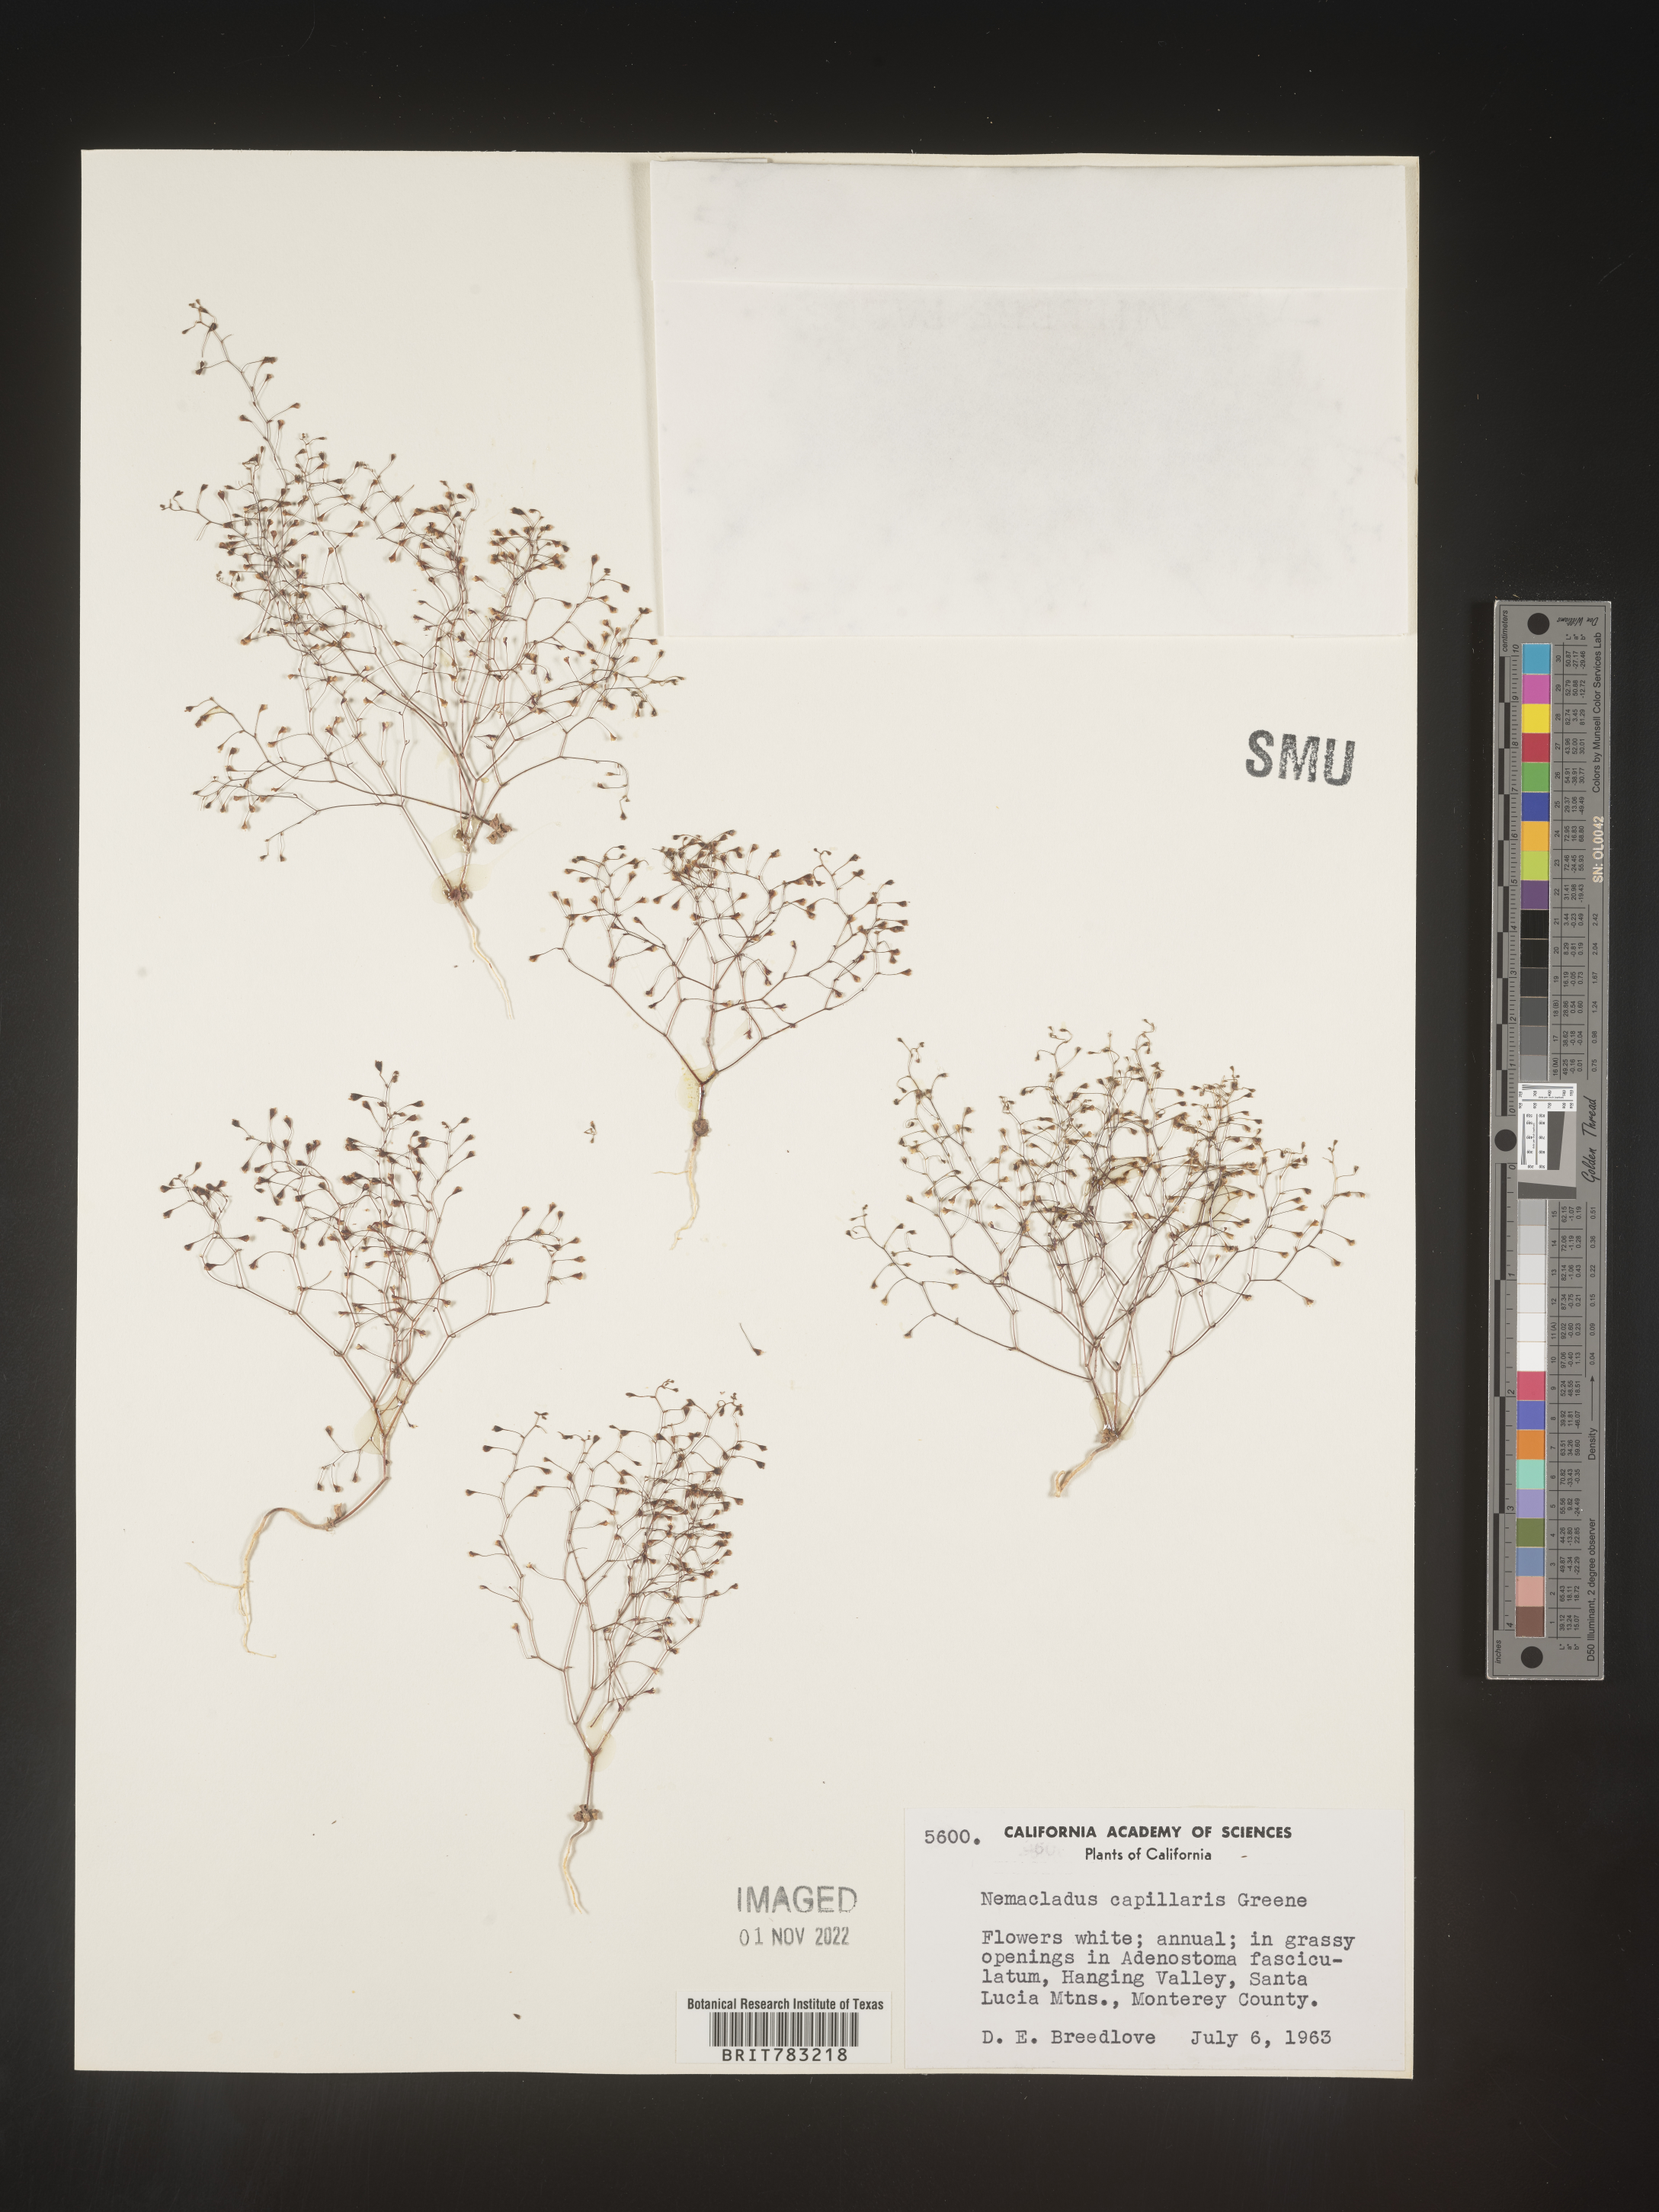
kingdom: Plantae
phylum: Tracheophyta
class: Magnoliopsida
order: Asterales
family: Campanulaceae
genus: Nemacladus
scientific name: Nemacladus
